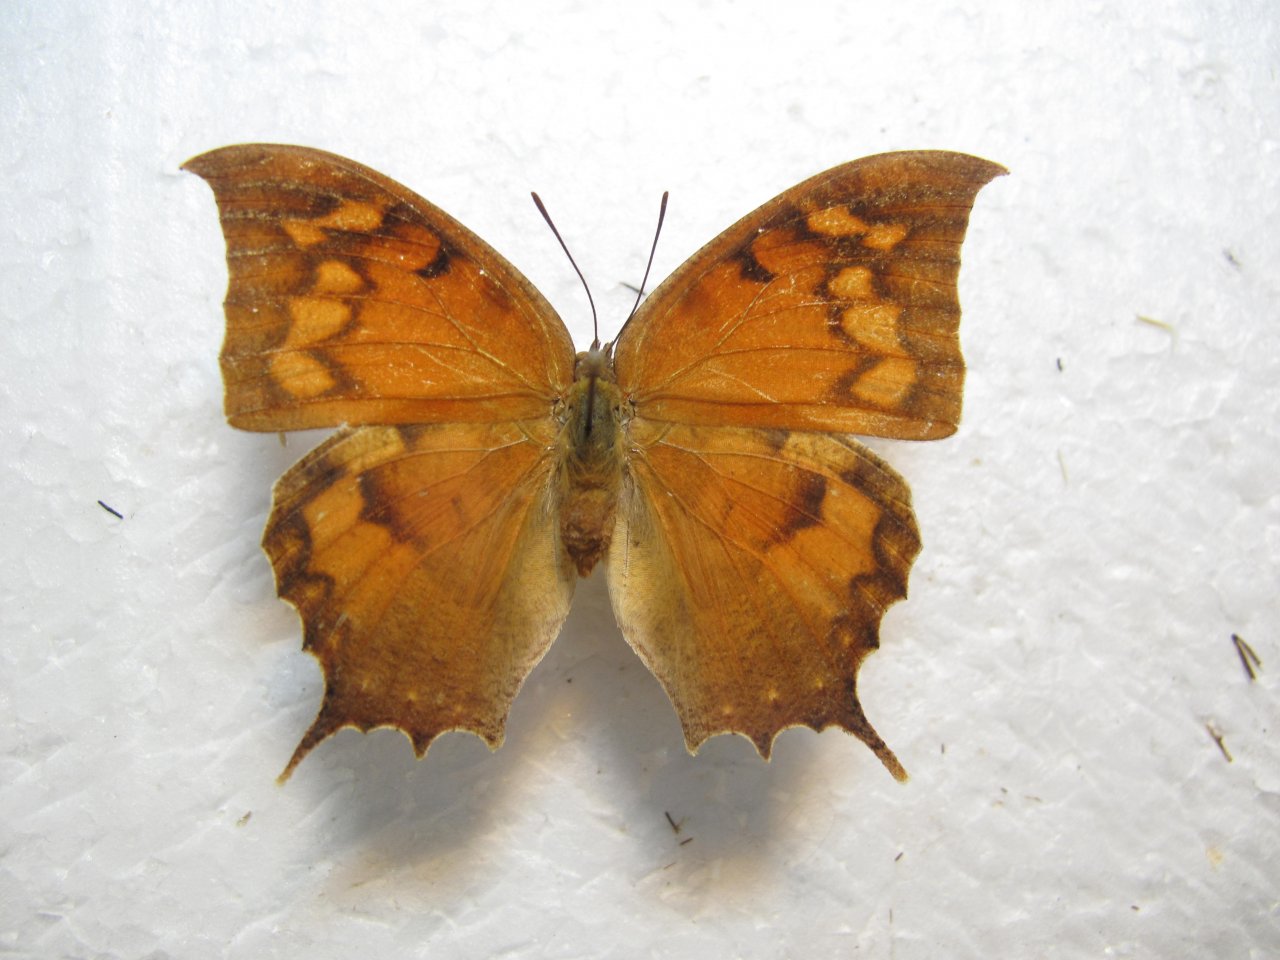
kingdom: Animalia
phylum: Arthropoda
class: Insecta
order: Lepidoptera
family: Nymphalidae
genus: Anaea
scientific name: Anaea troglodyta
